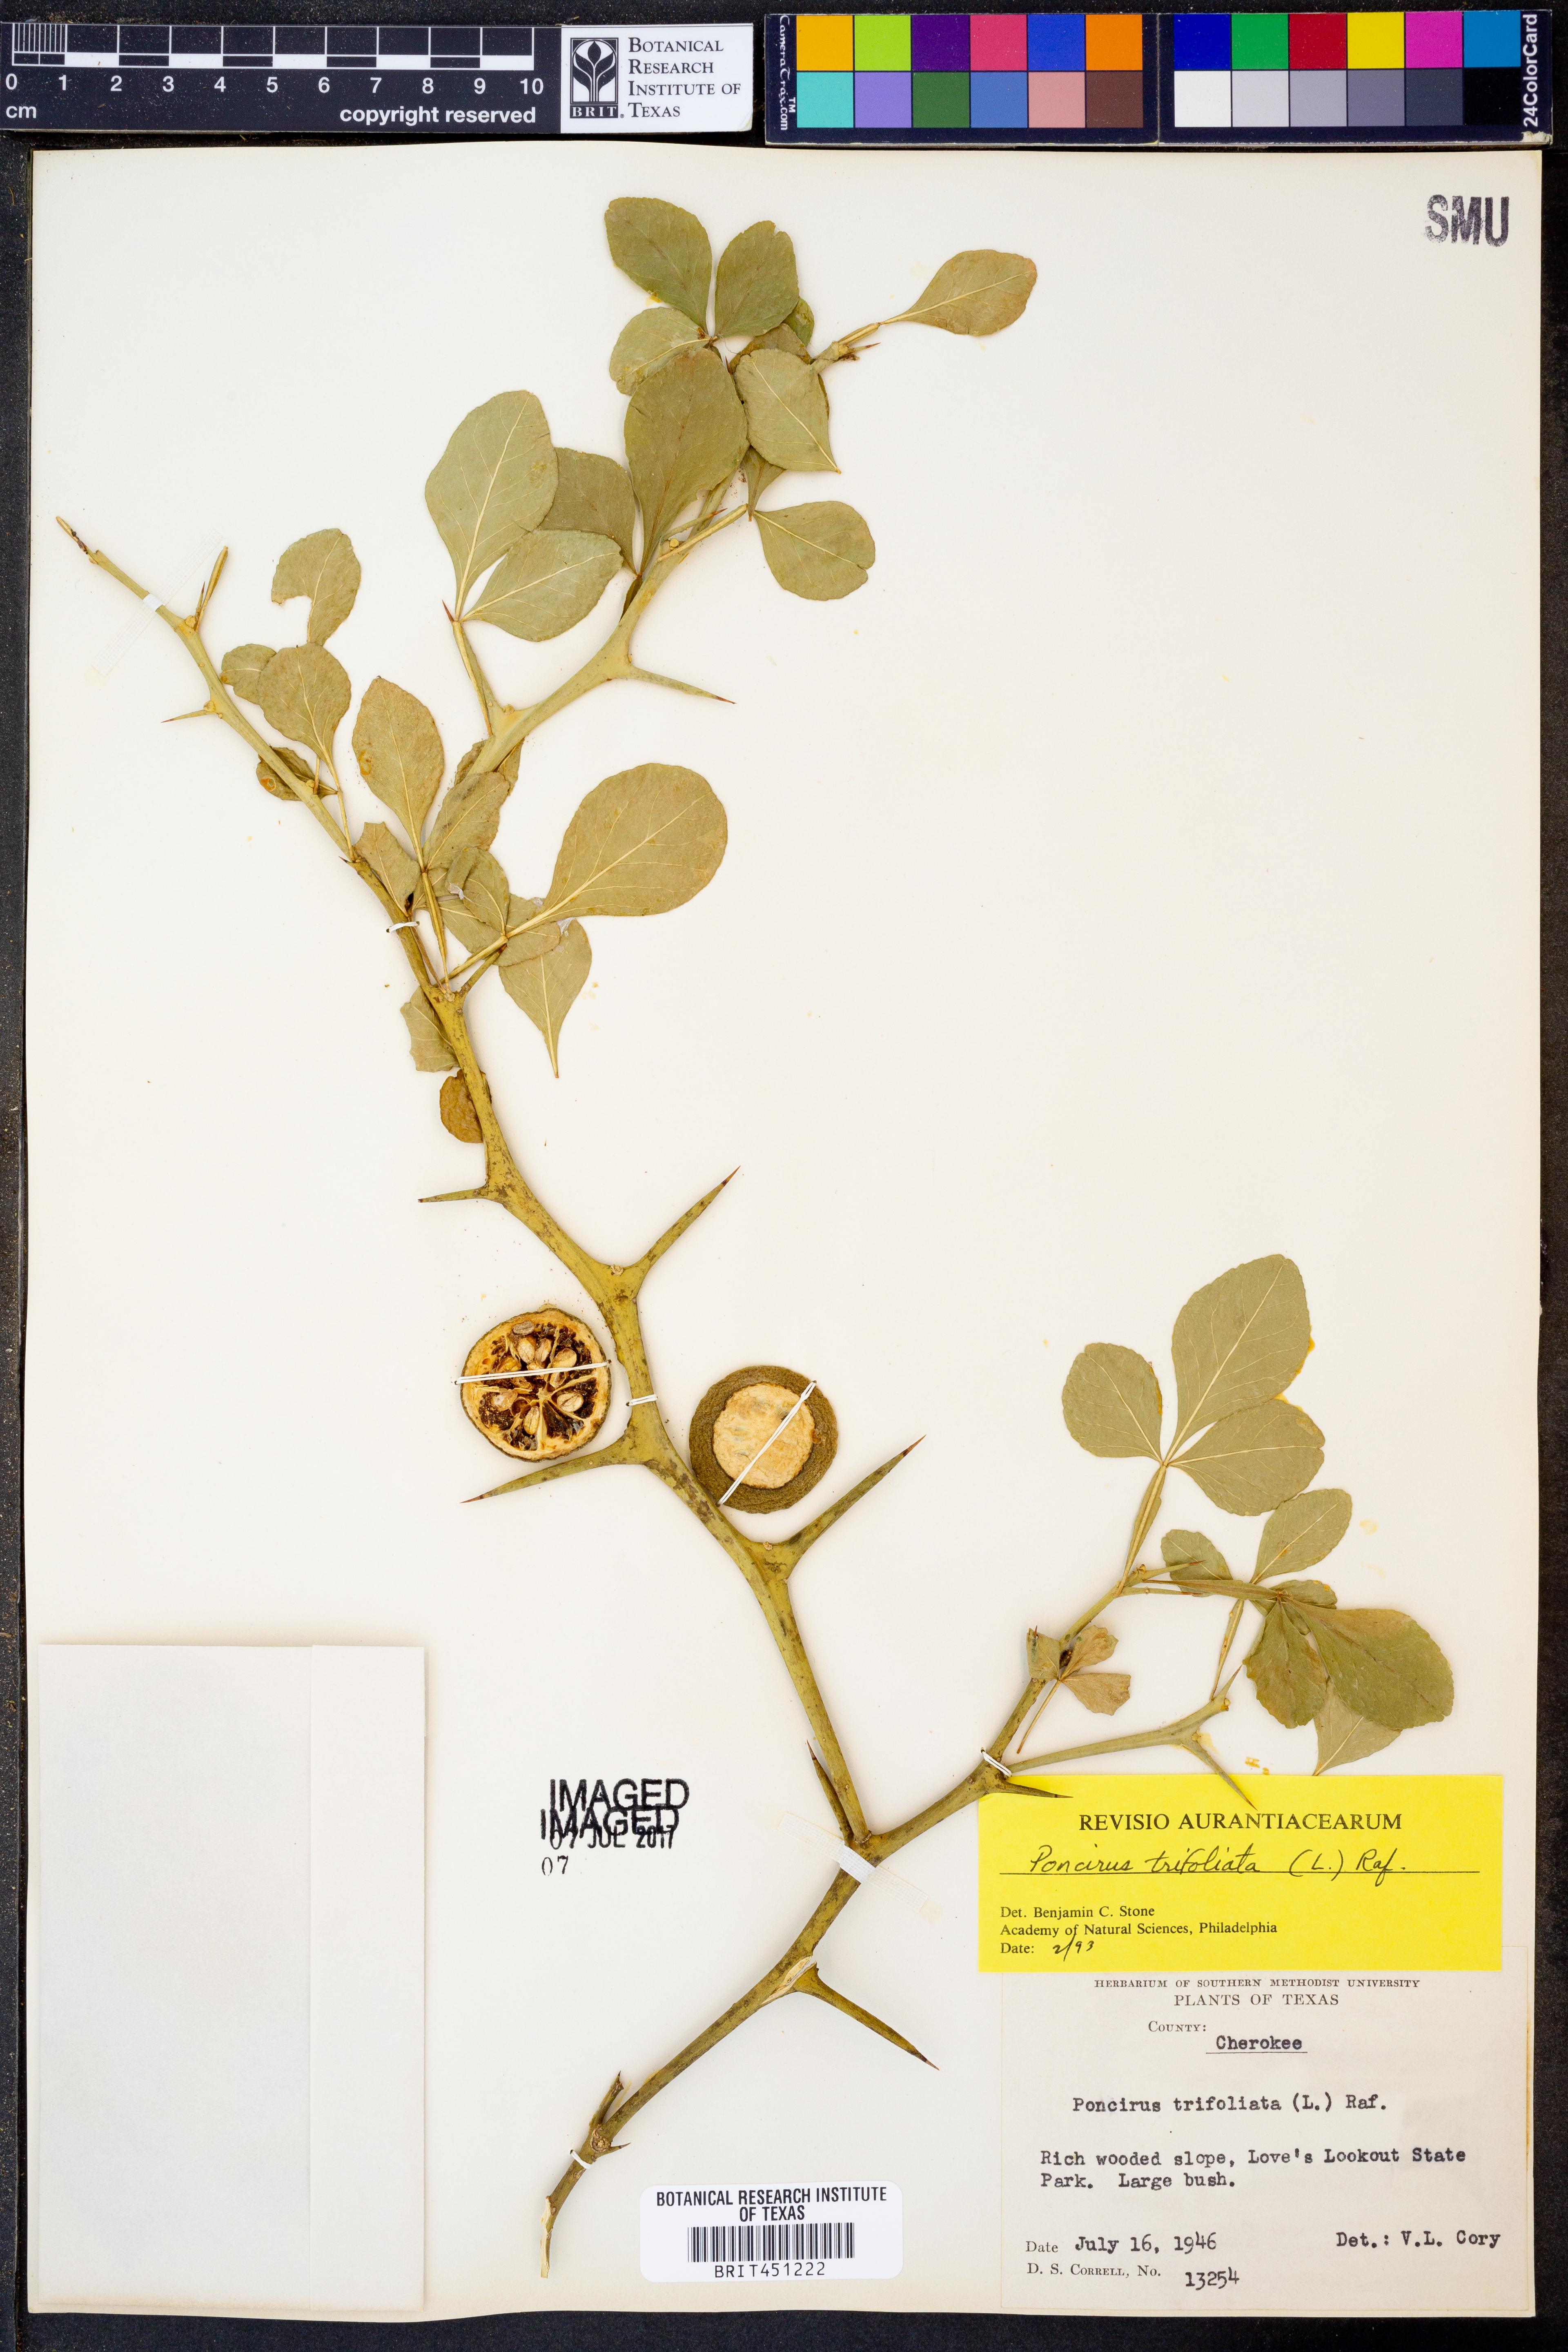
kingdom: Plantae
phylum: Tracheophyta
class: Magnoliopsida
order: Sapindales
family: Rutaceae
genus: Citrus
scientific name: Citrus trifoliata
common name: Japanese bitter-orange
